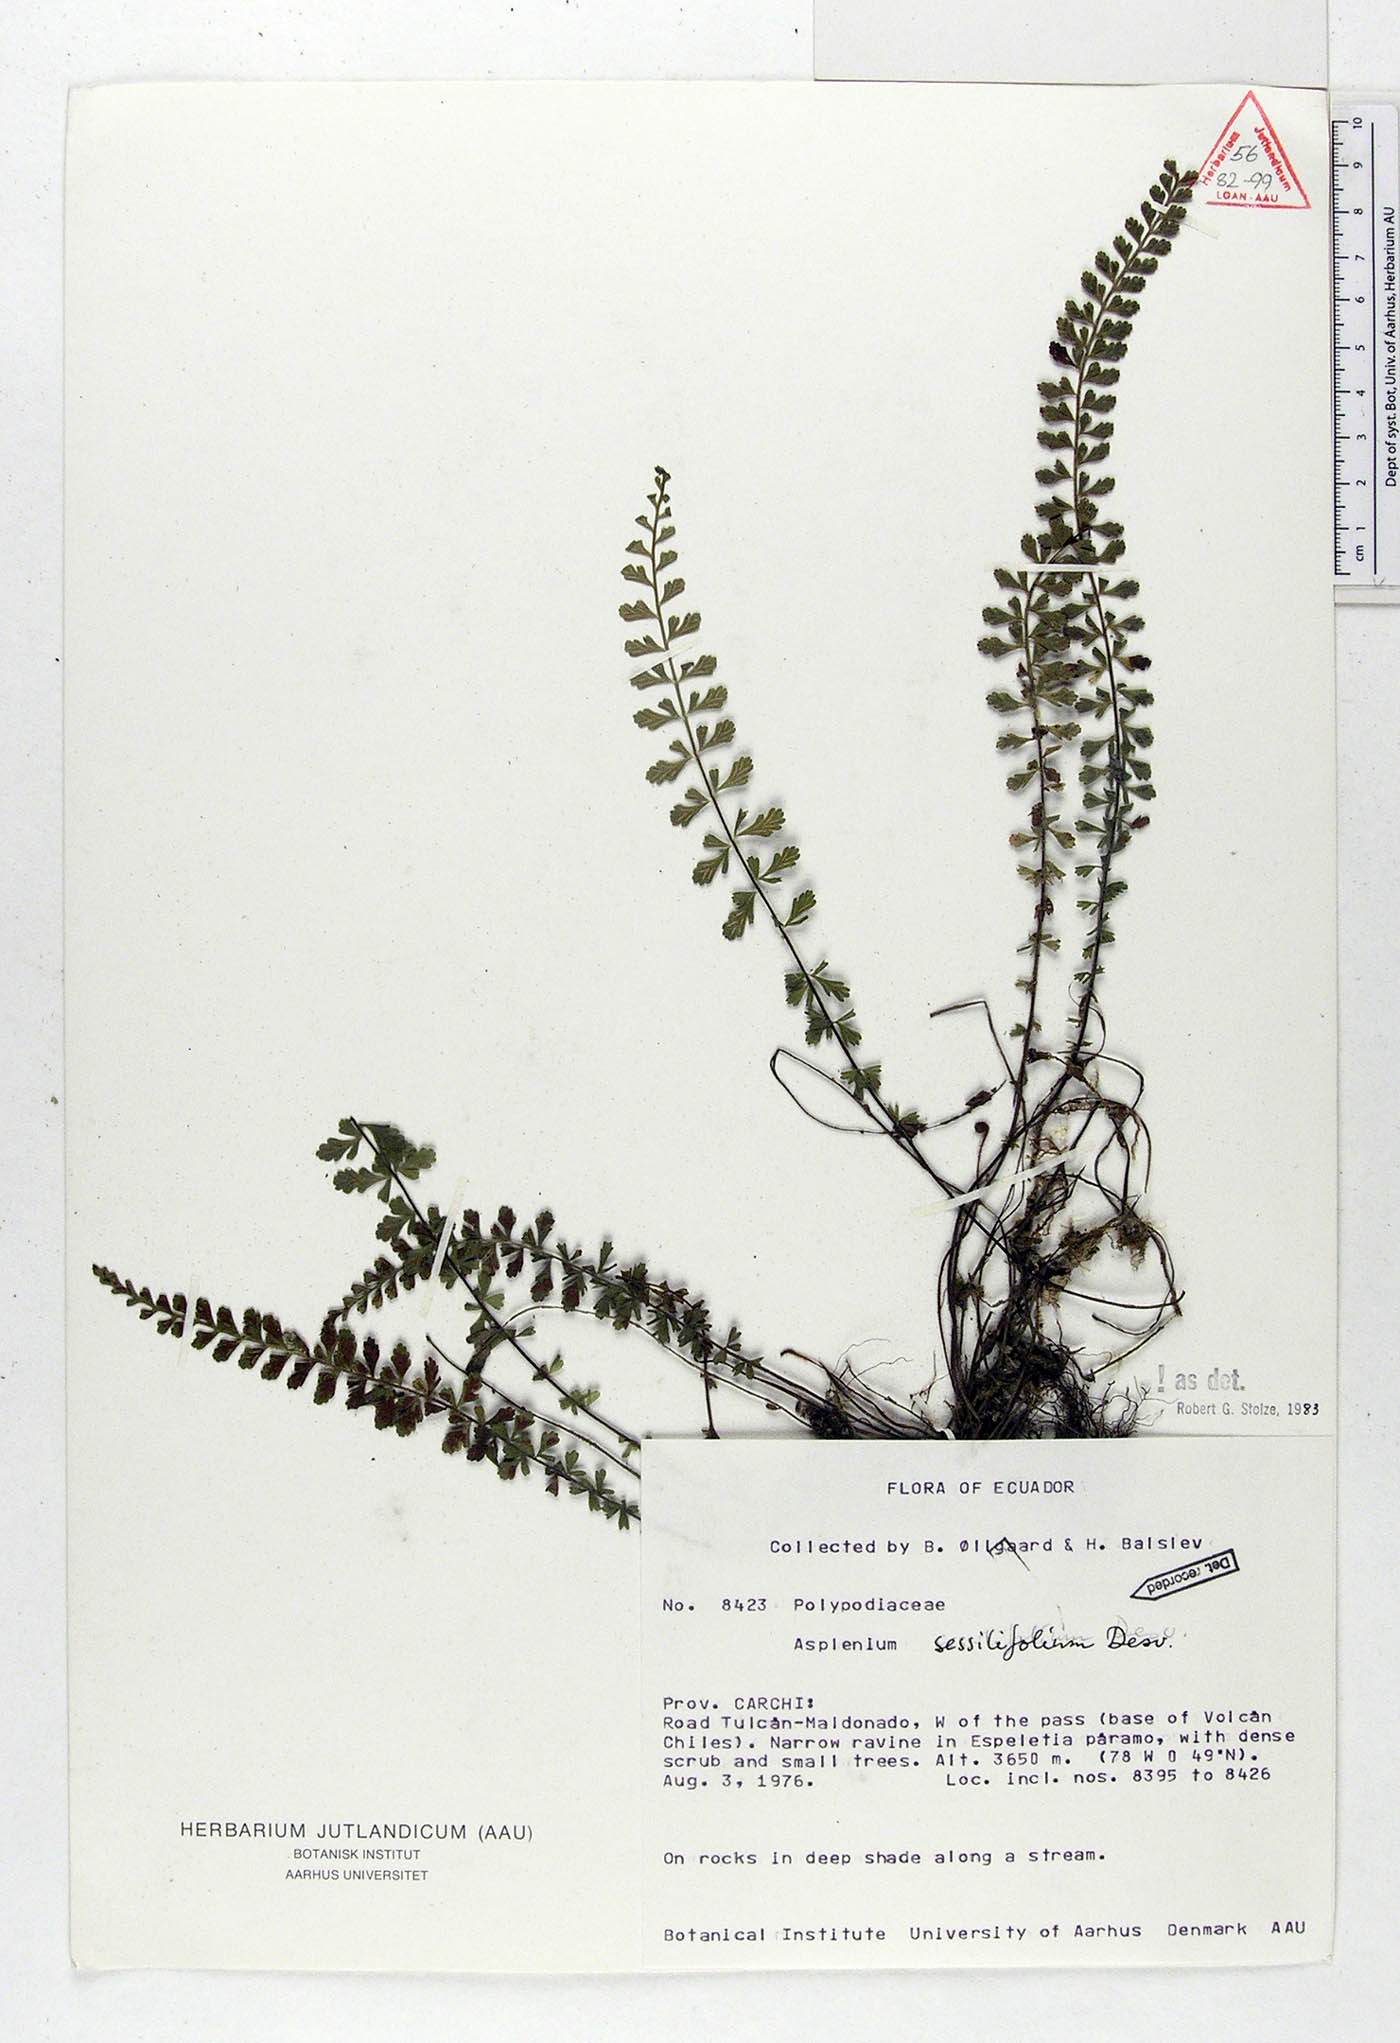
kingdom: Plantae
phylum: Tracheophyta
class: Polypodiopsida
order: Polypodiales
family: Aspleniaceae
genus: Asplenium
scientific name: Asplenium sessilifolium
